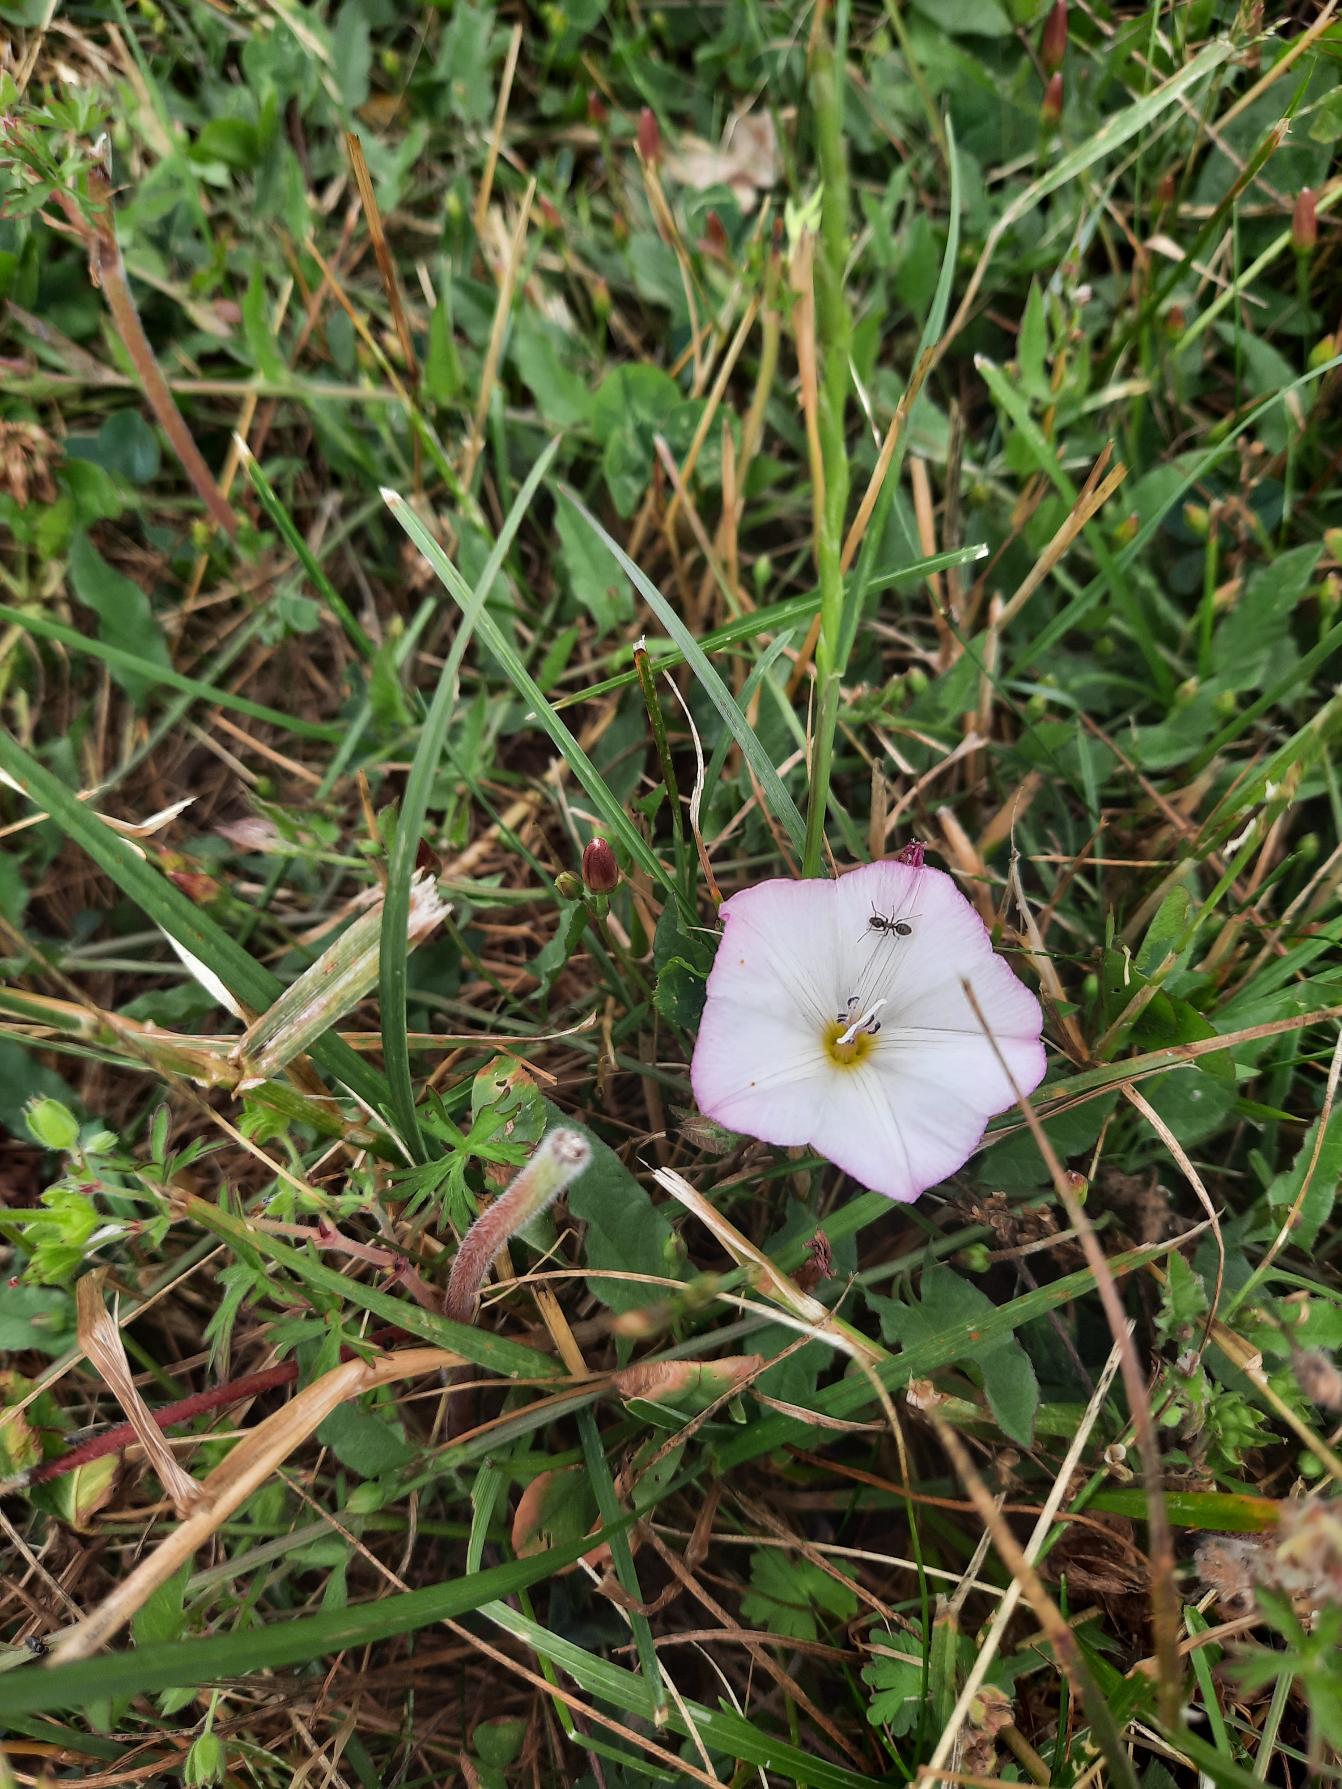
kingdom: Plantae
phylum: Tracheophyta
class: Magnoliopsida
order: Solanales
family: Convolvulaceae
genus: Convolvulus
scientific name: Convolvulus arvensis
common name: Ager-snerle
